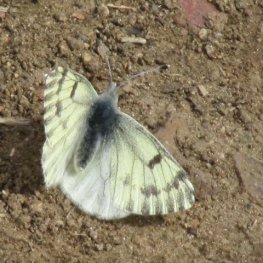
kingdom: Animalia
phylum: Arthropoda
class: Insecta
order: Lepidoptera
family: Pieridae
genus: Pontia
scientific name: Pontia sisymbrii
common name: Spring White
